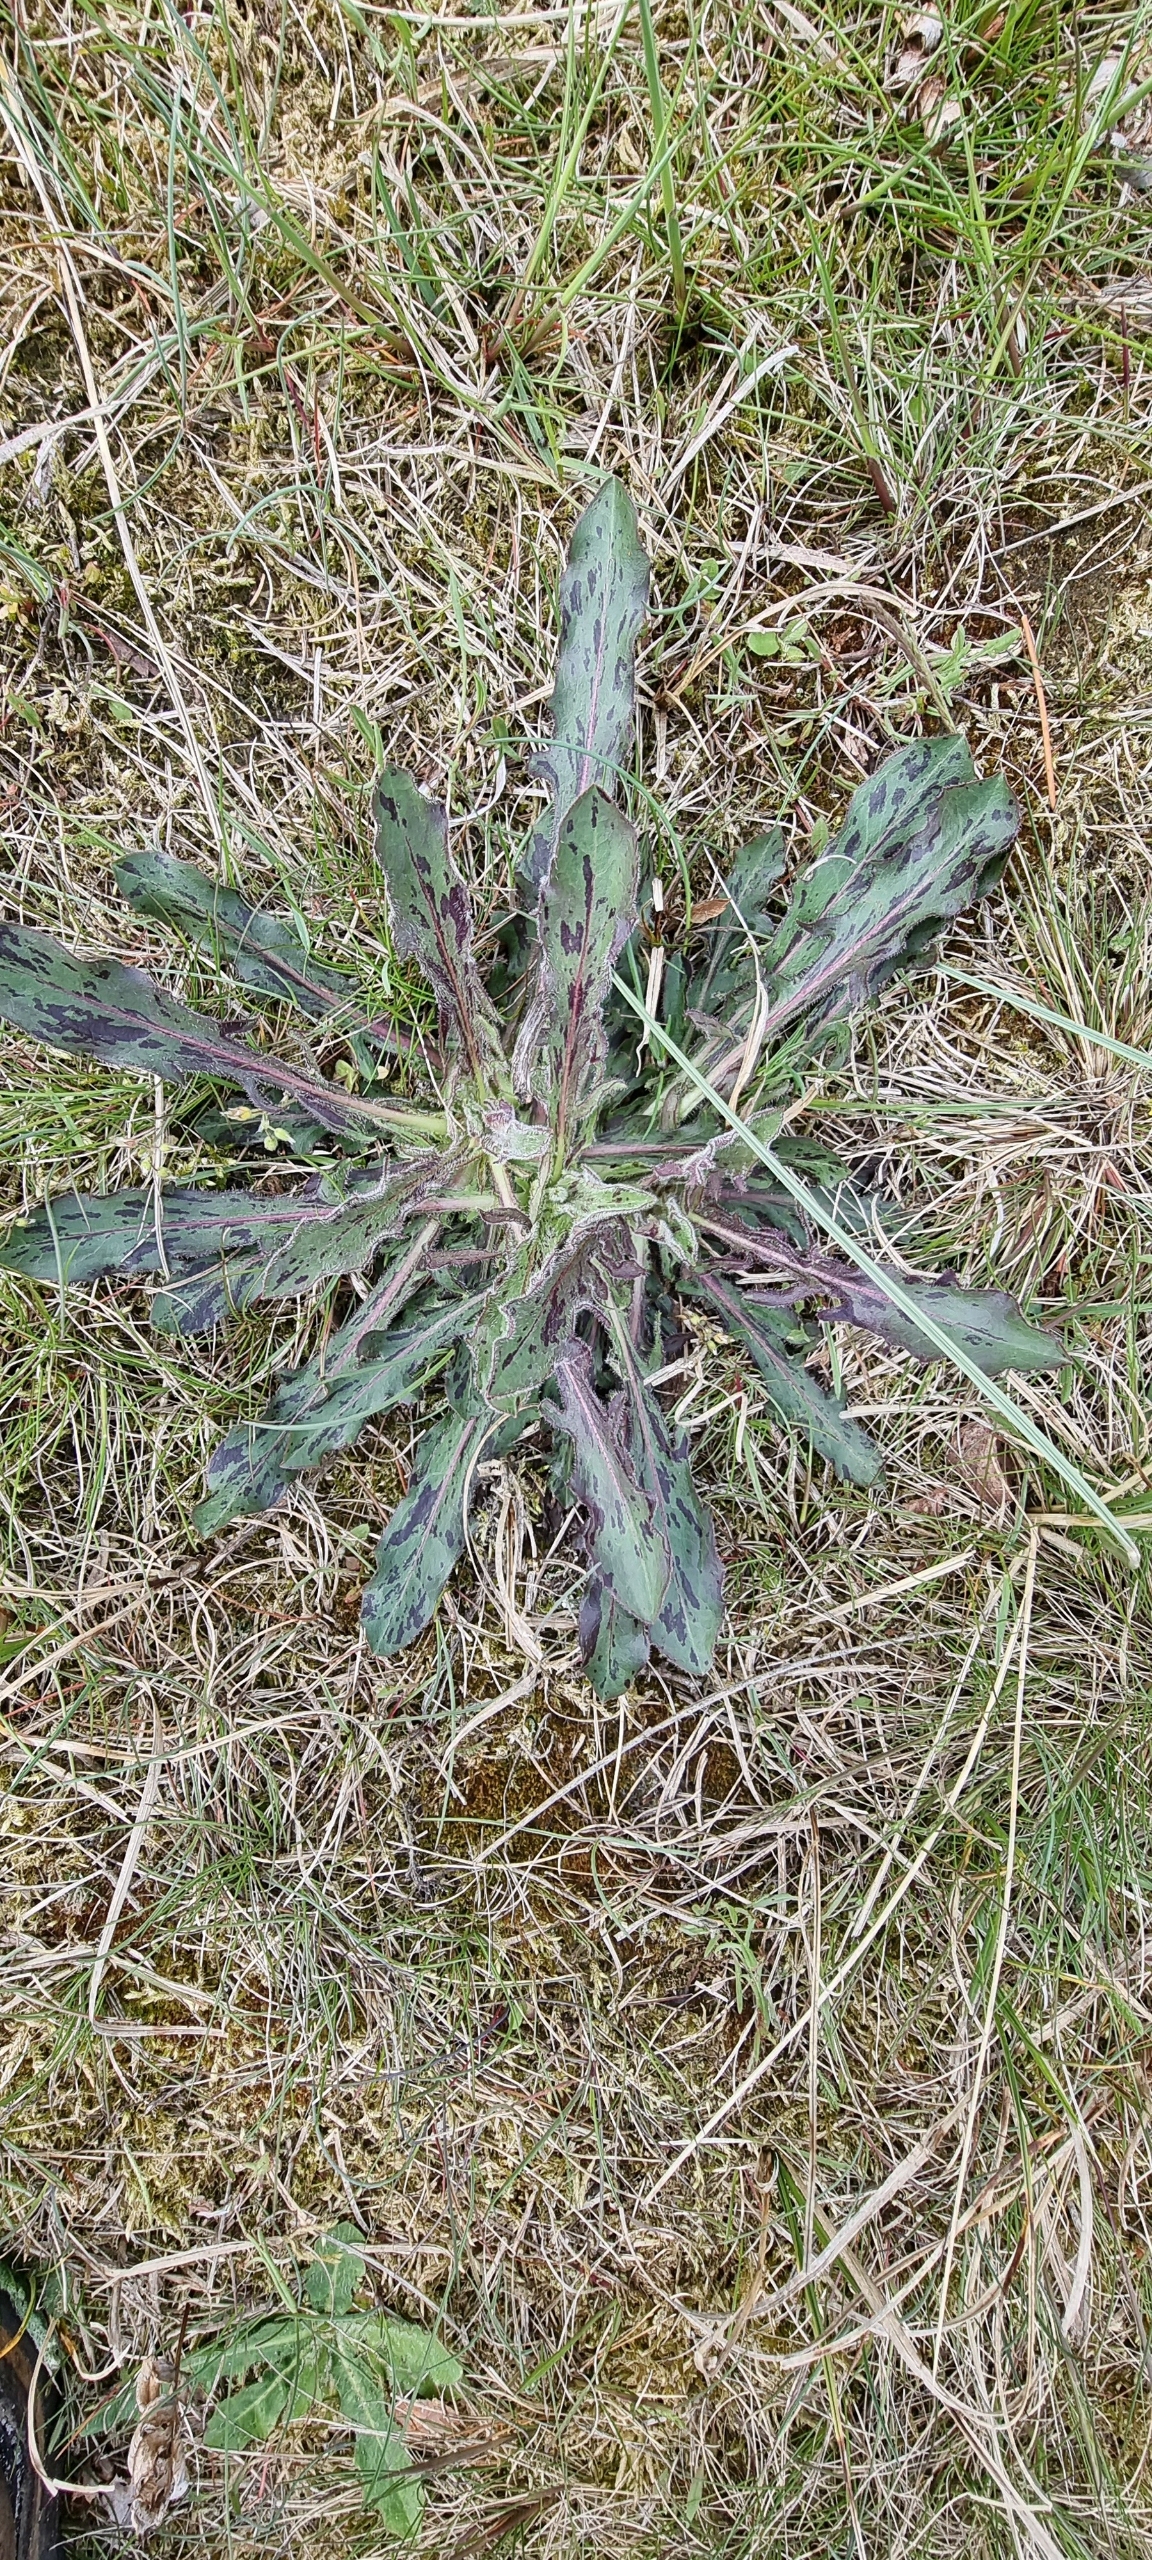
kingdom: Plantae
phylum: Tracheophyta
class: Magnoliopsida
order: Asterales
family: Asteraceae
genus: Trommsdorffia
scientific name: Trommsdorffia maculata
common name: Plettet kongepen
